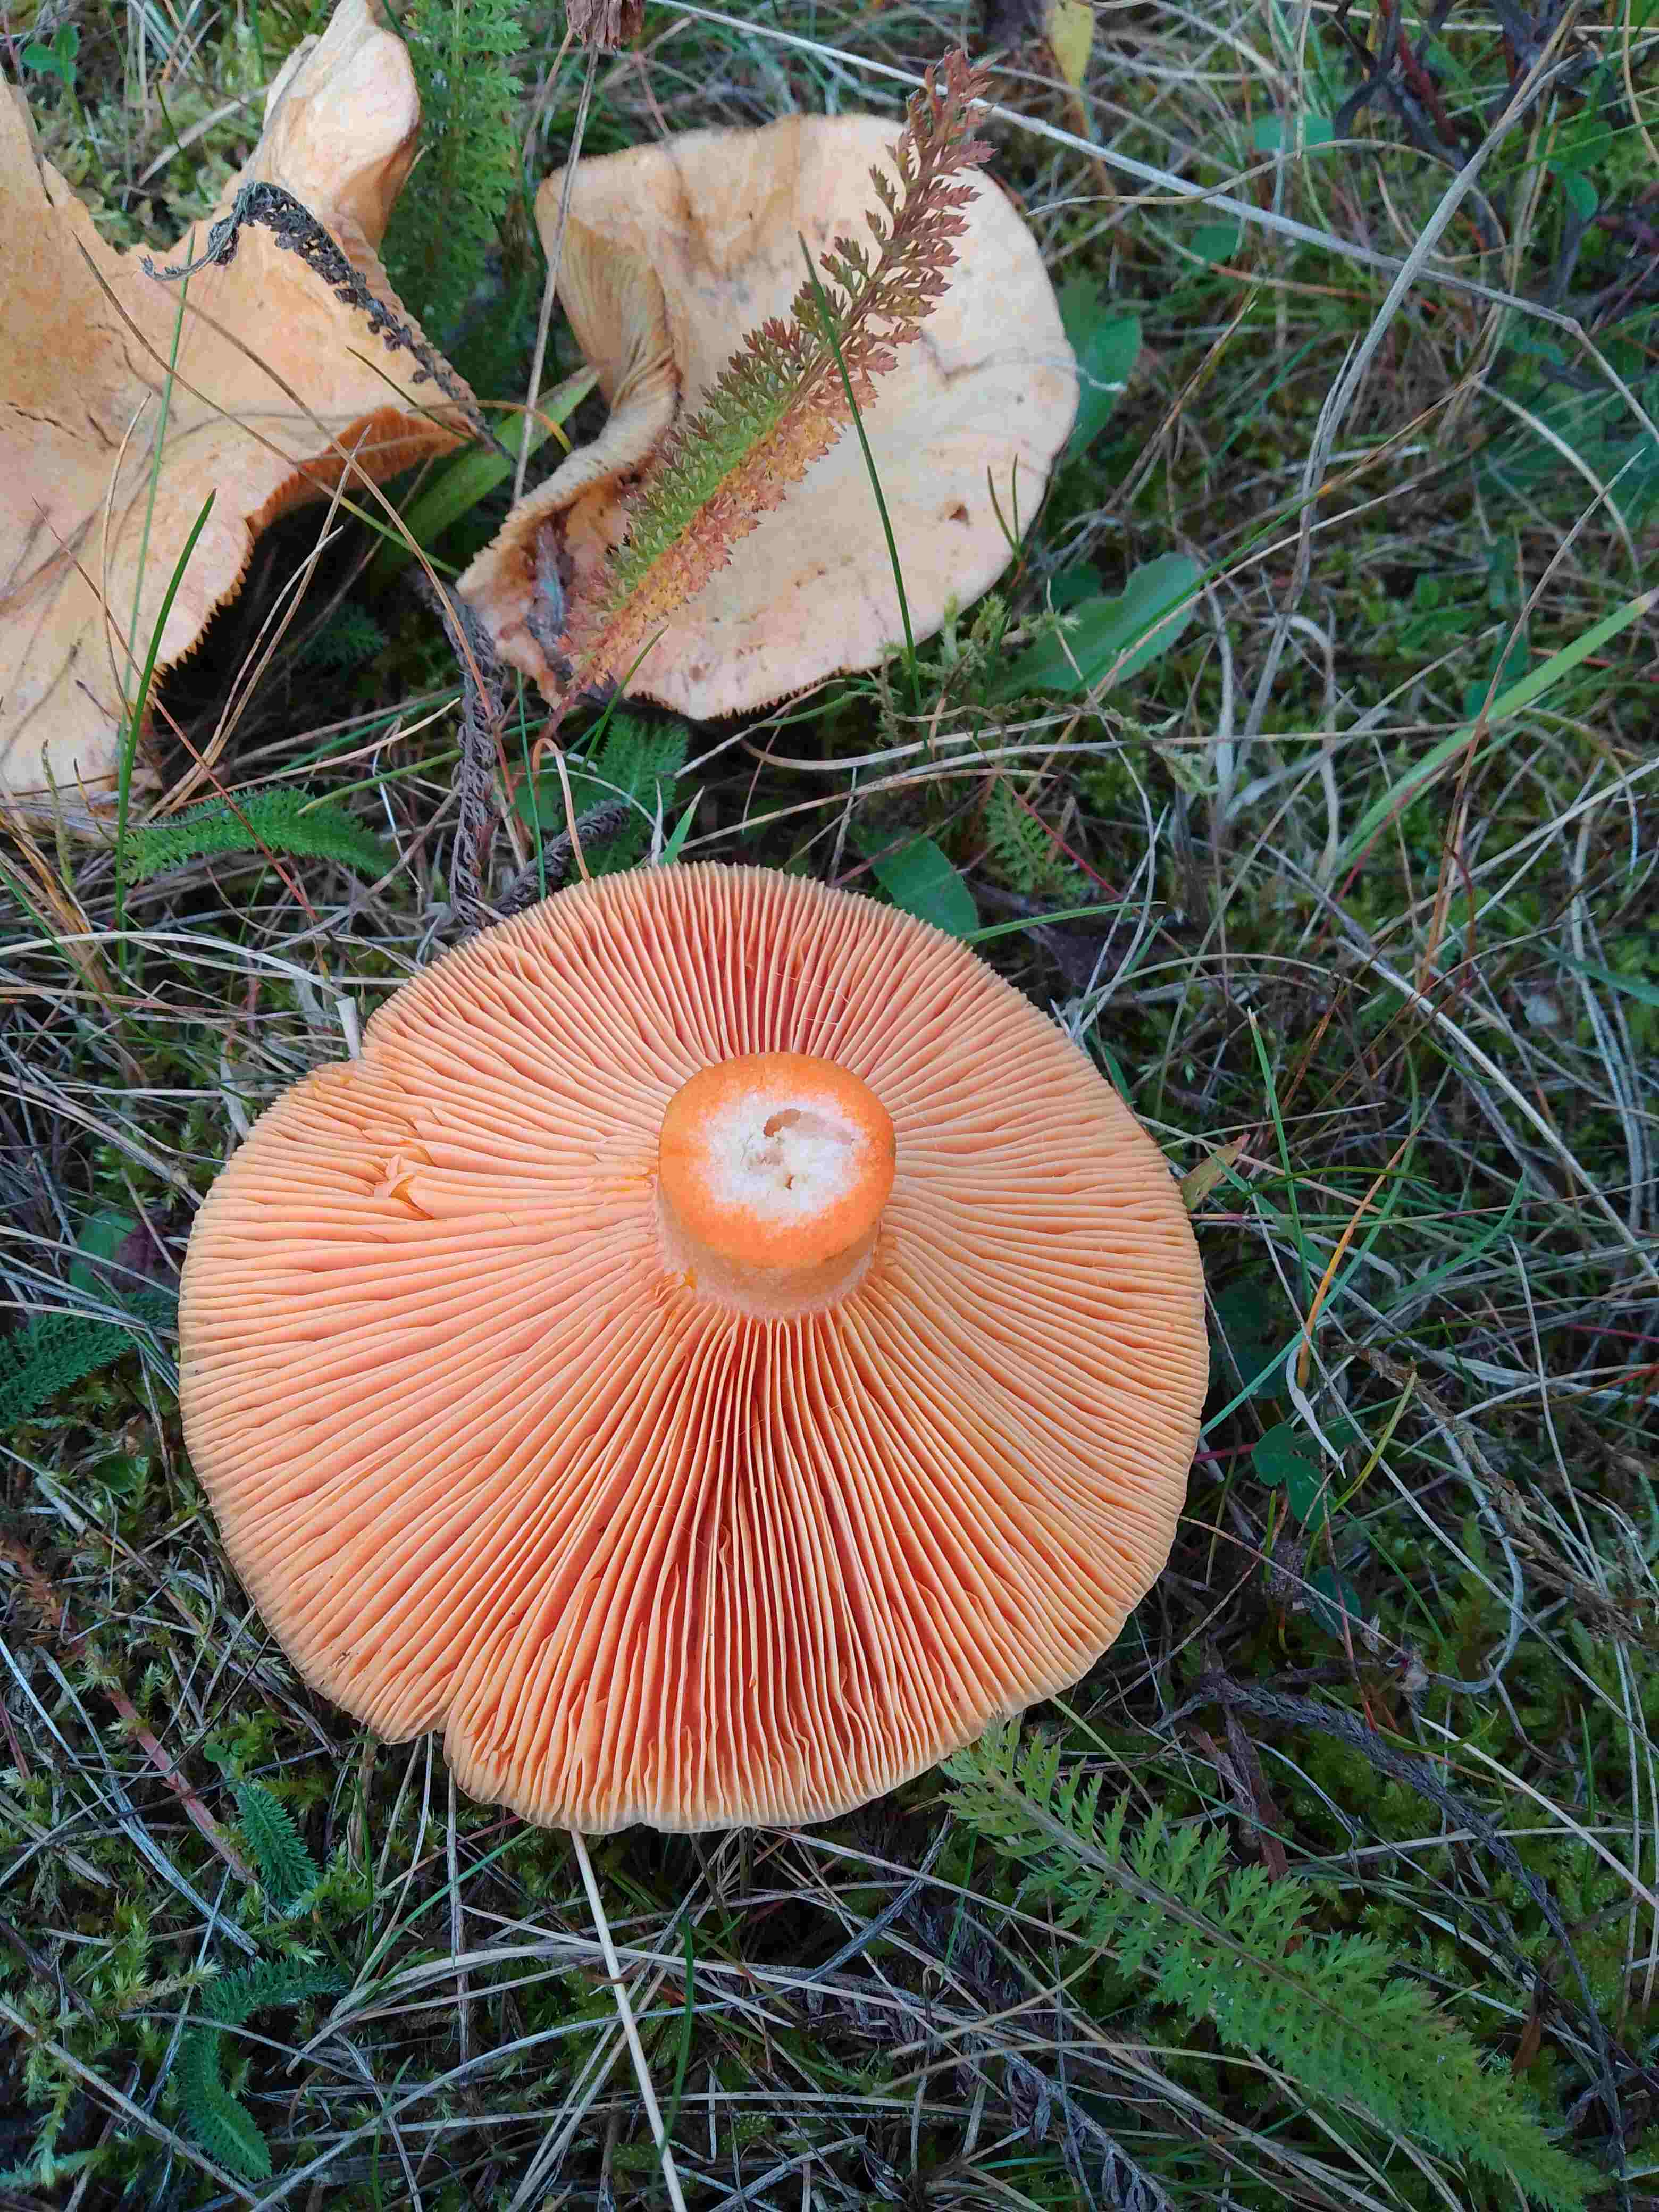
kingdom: Fungi
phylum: Basidiomycota
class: Agaricomycetes
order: Russulales
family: Russulaceae
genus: Lactarius
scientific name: Lactarius deterrimus
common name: gran-mælkehat
